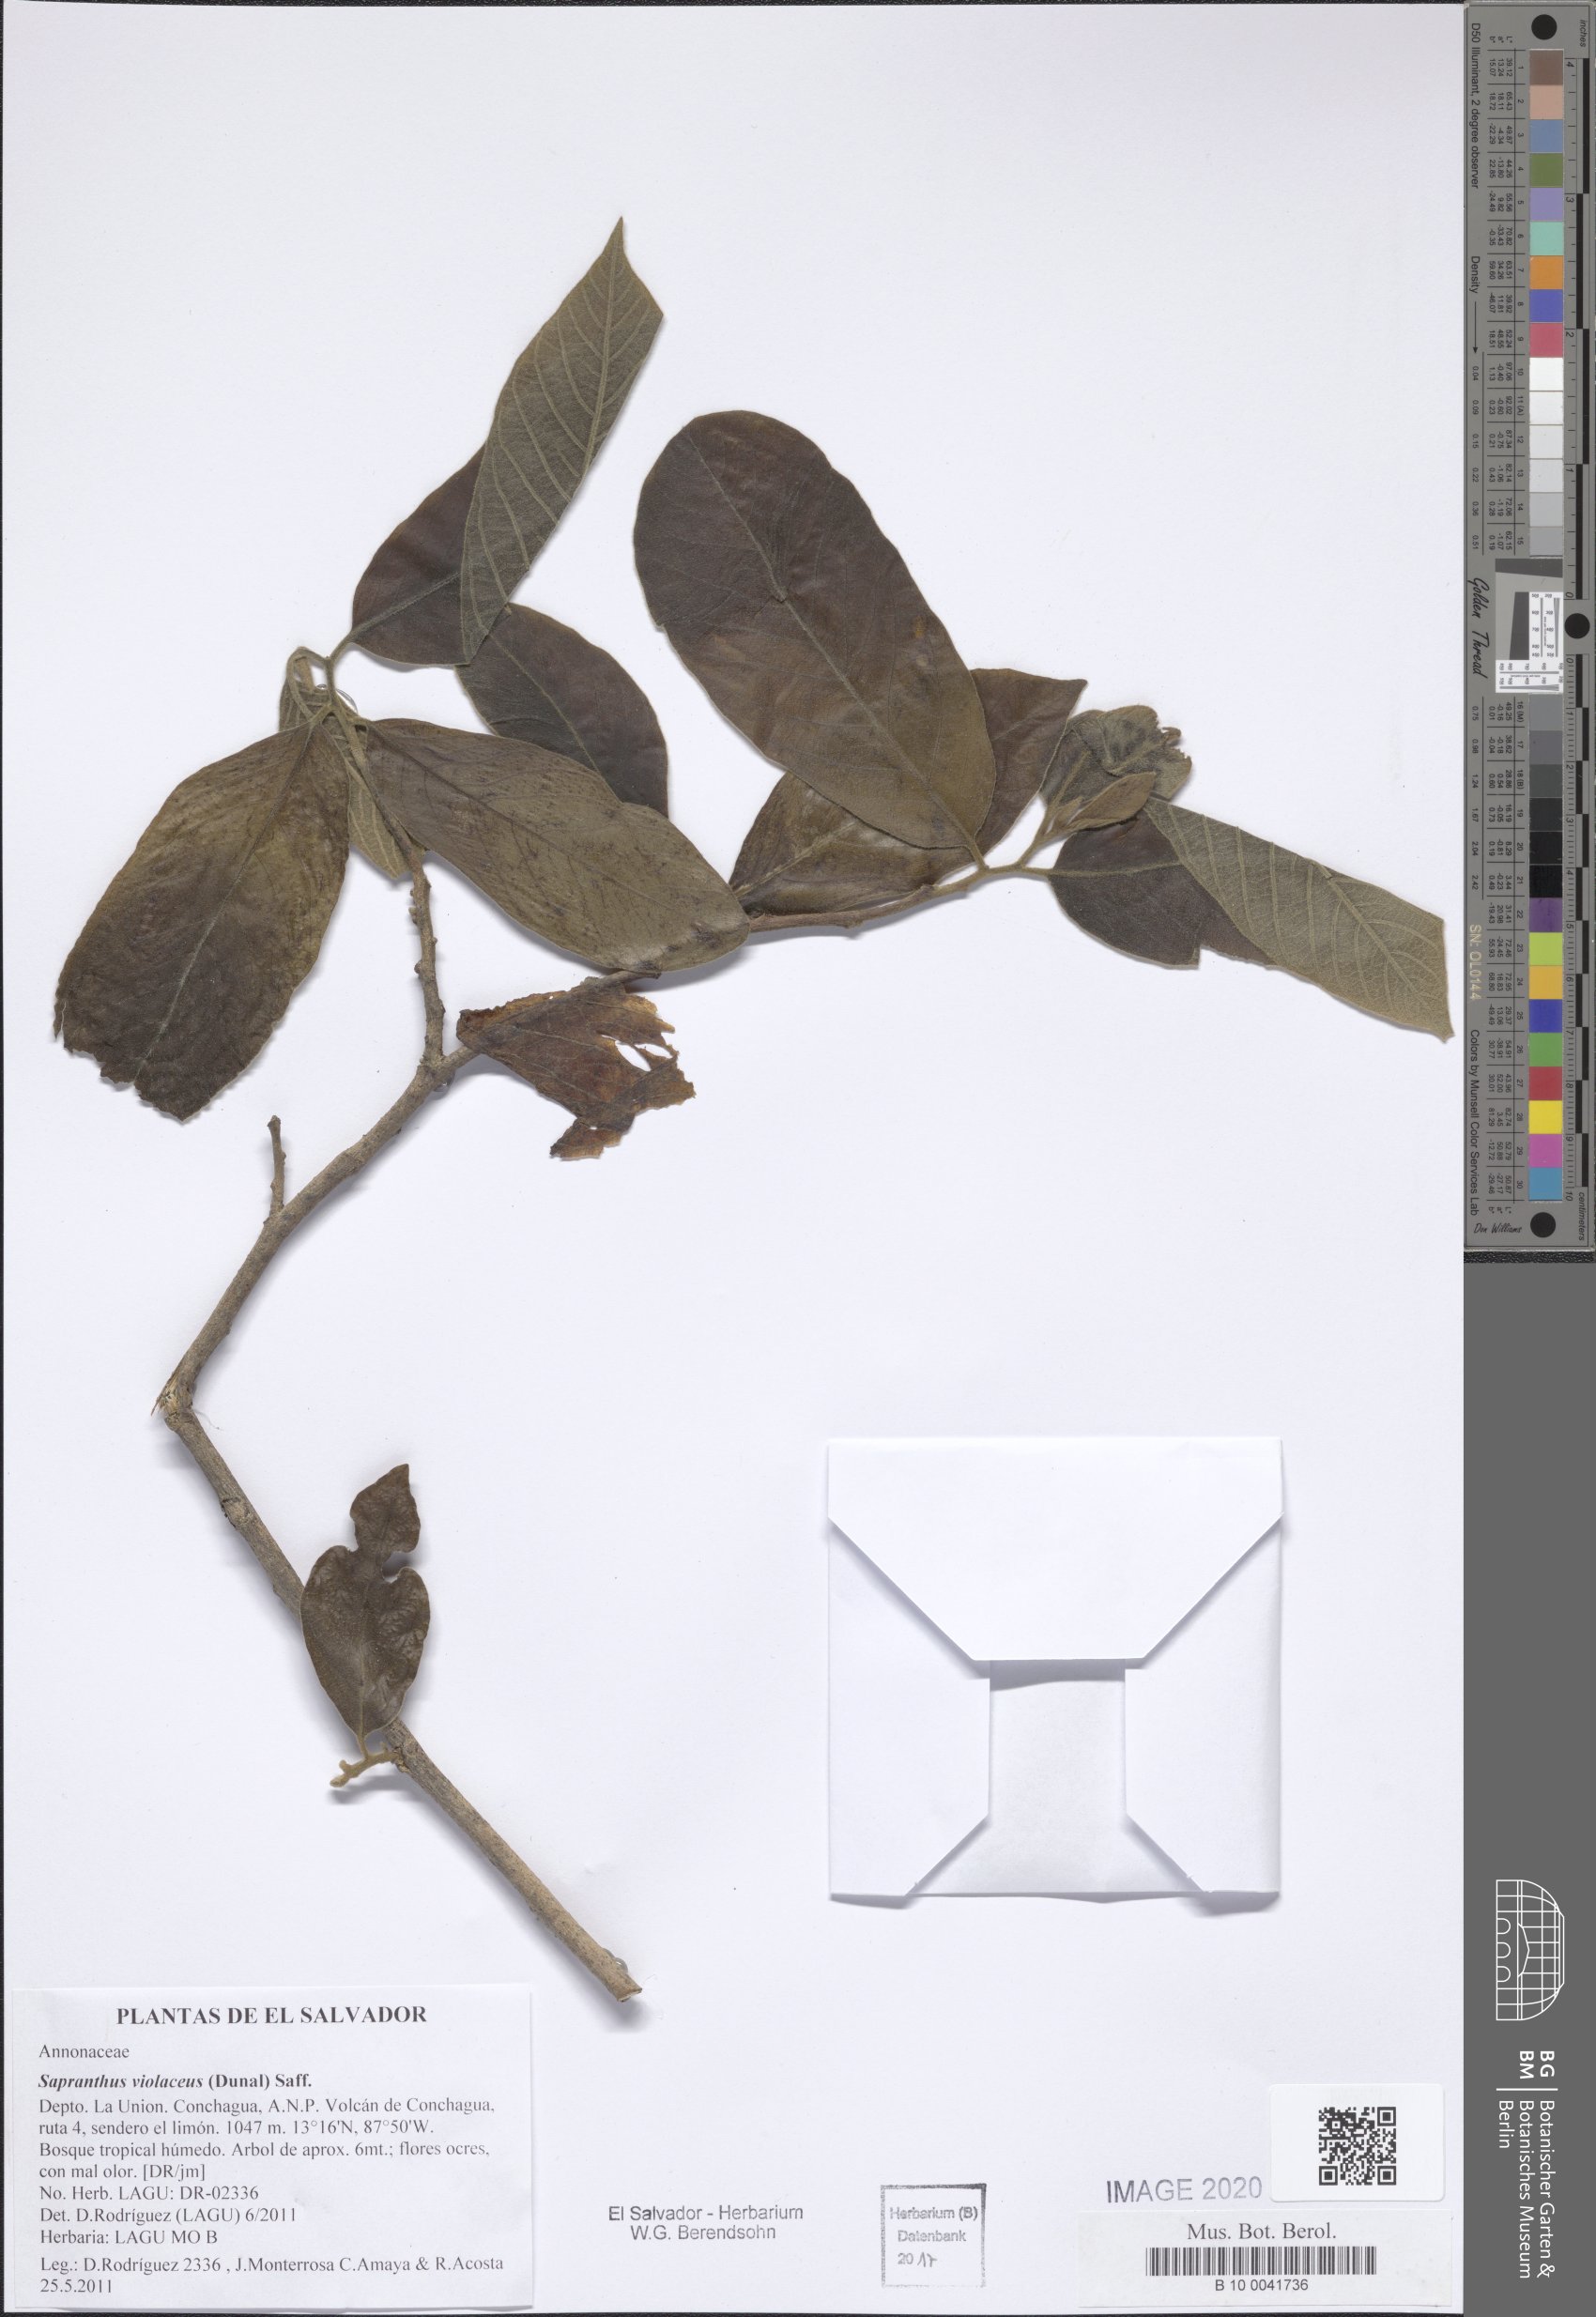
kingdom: Plantae
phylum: Tracheophyta
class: Magnoliopsida
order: Magnoliales
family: Annonaceae
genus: Sapranthus
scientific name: Sapranthus violaceus
